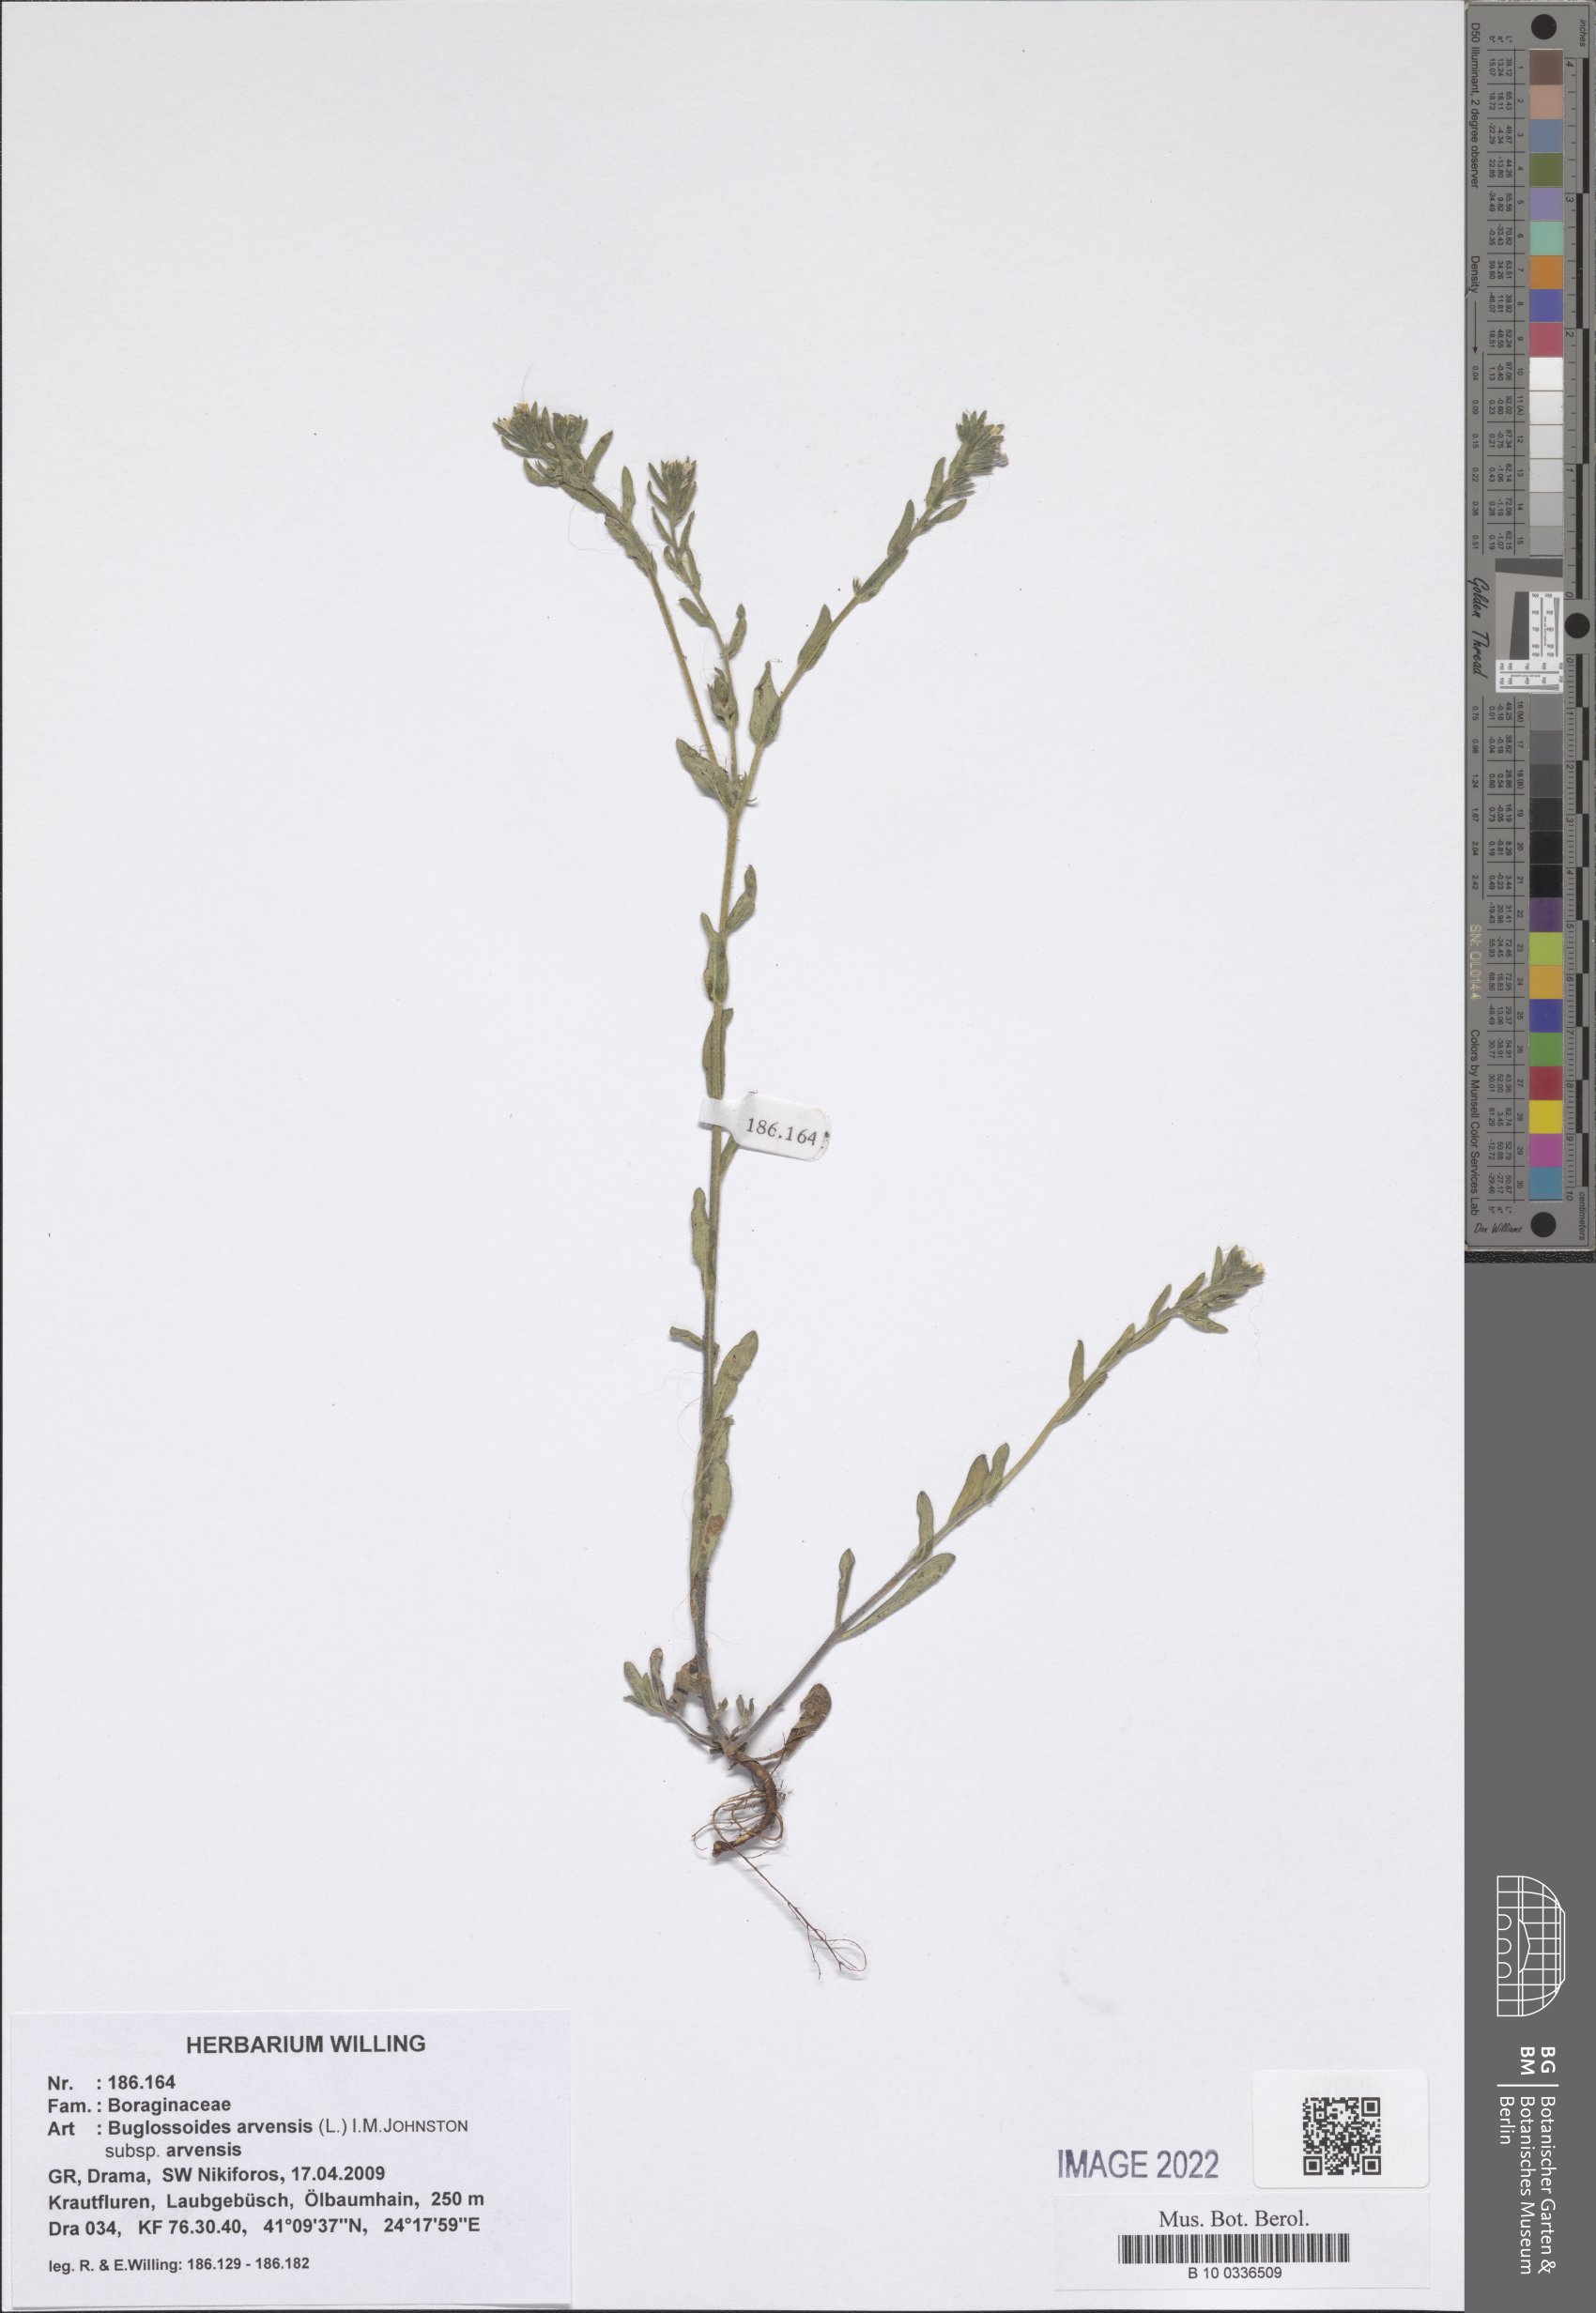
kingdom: Plantae
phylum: Tracheophyta
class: Magnoliopsida
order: Boraginales
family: Boraginaceae
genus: Buglossoides
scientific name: Buglossoides arvensis
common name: Corn gromwell
